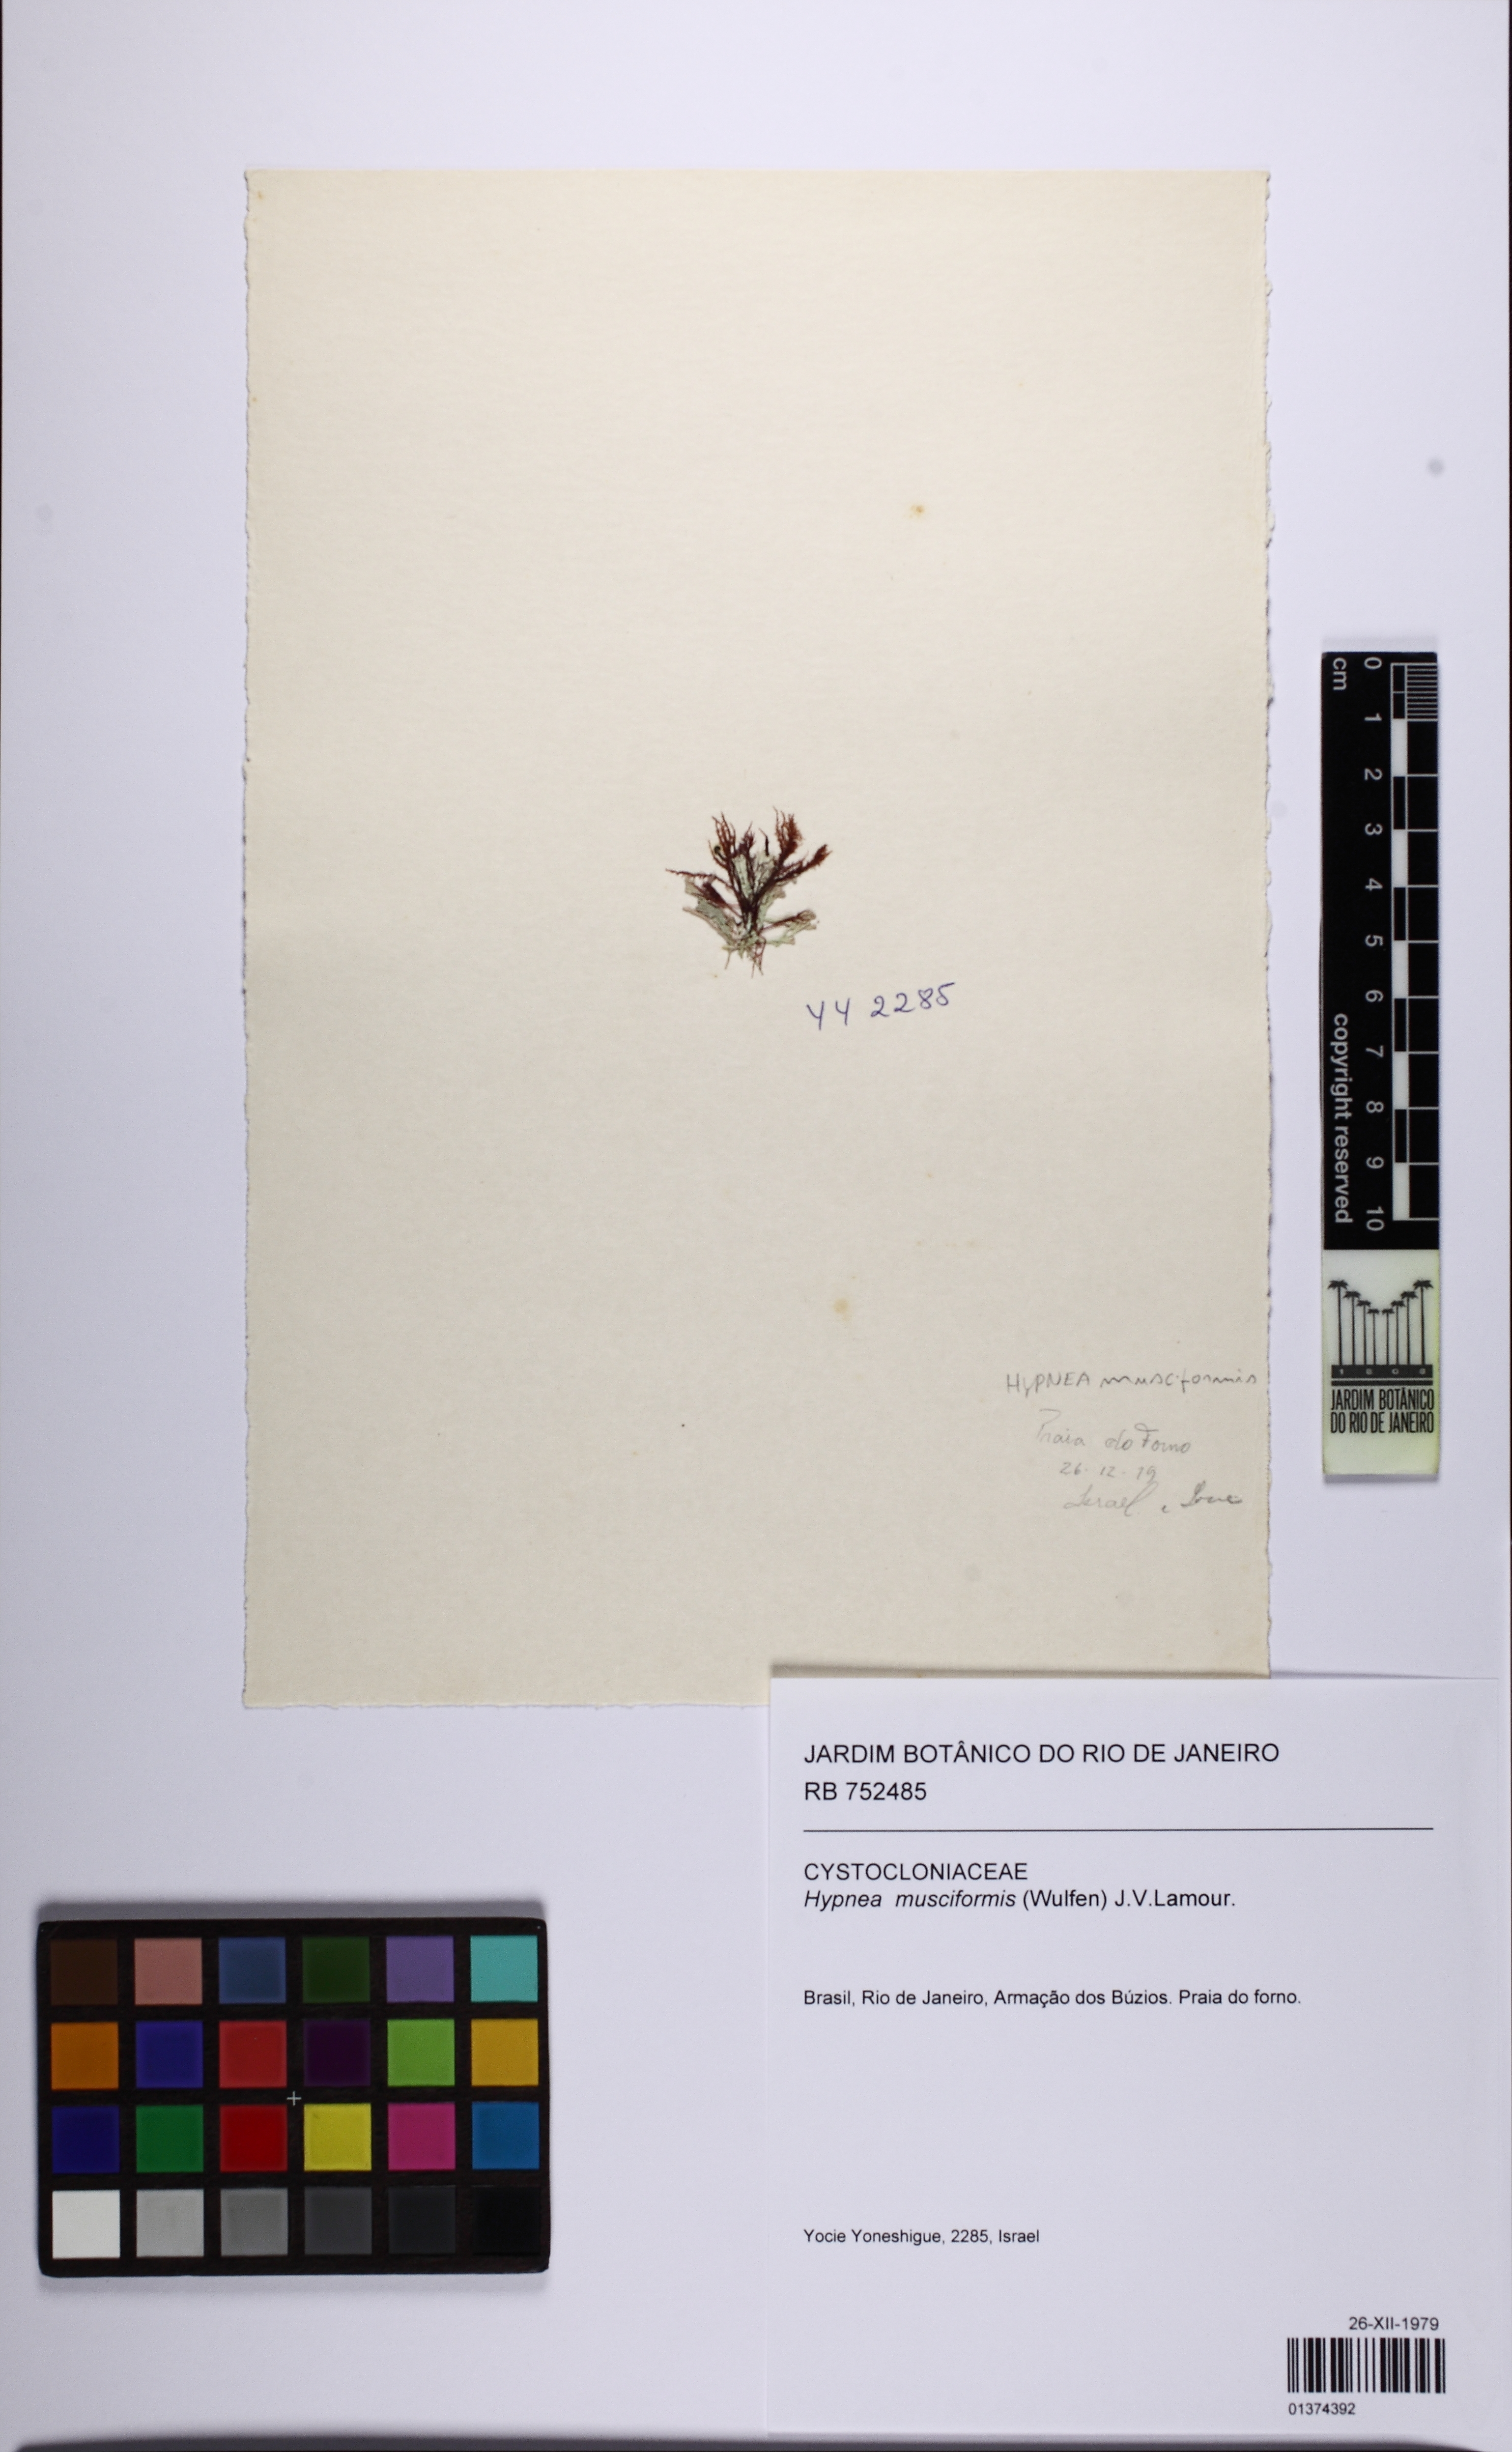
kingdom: Plantae
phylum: Rhodophyta
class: Florideophyceae
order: Gigartinales
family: Cystocloniaceae
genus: Hypnea
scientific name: Hypnea musciformis
